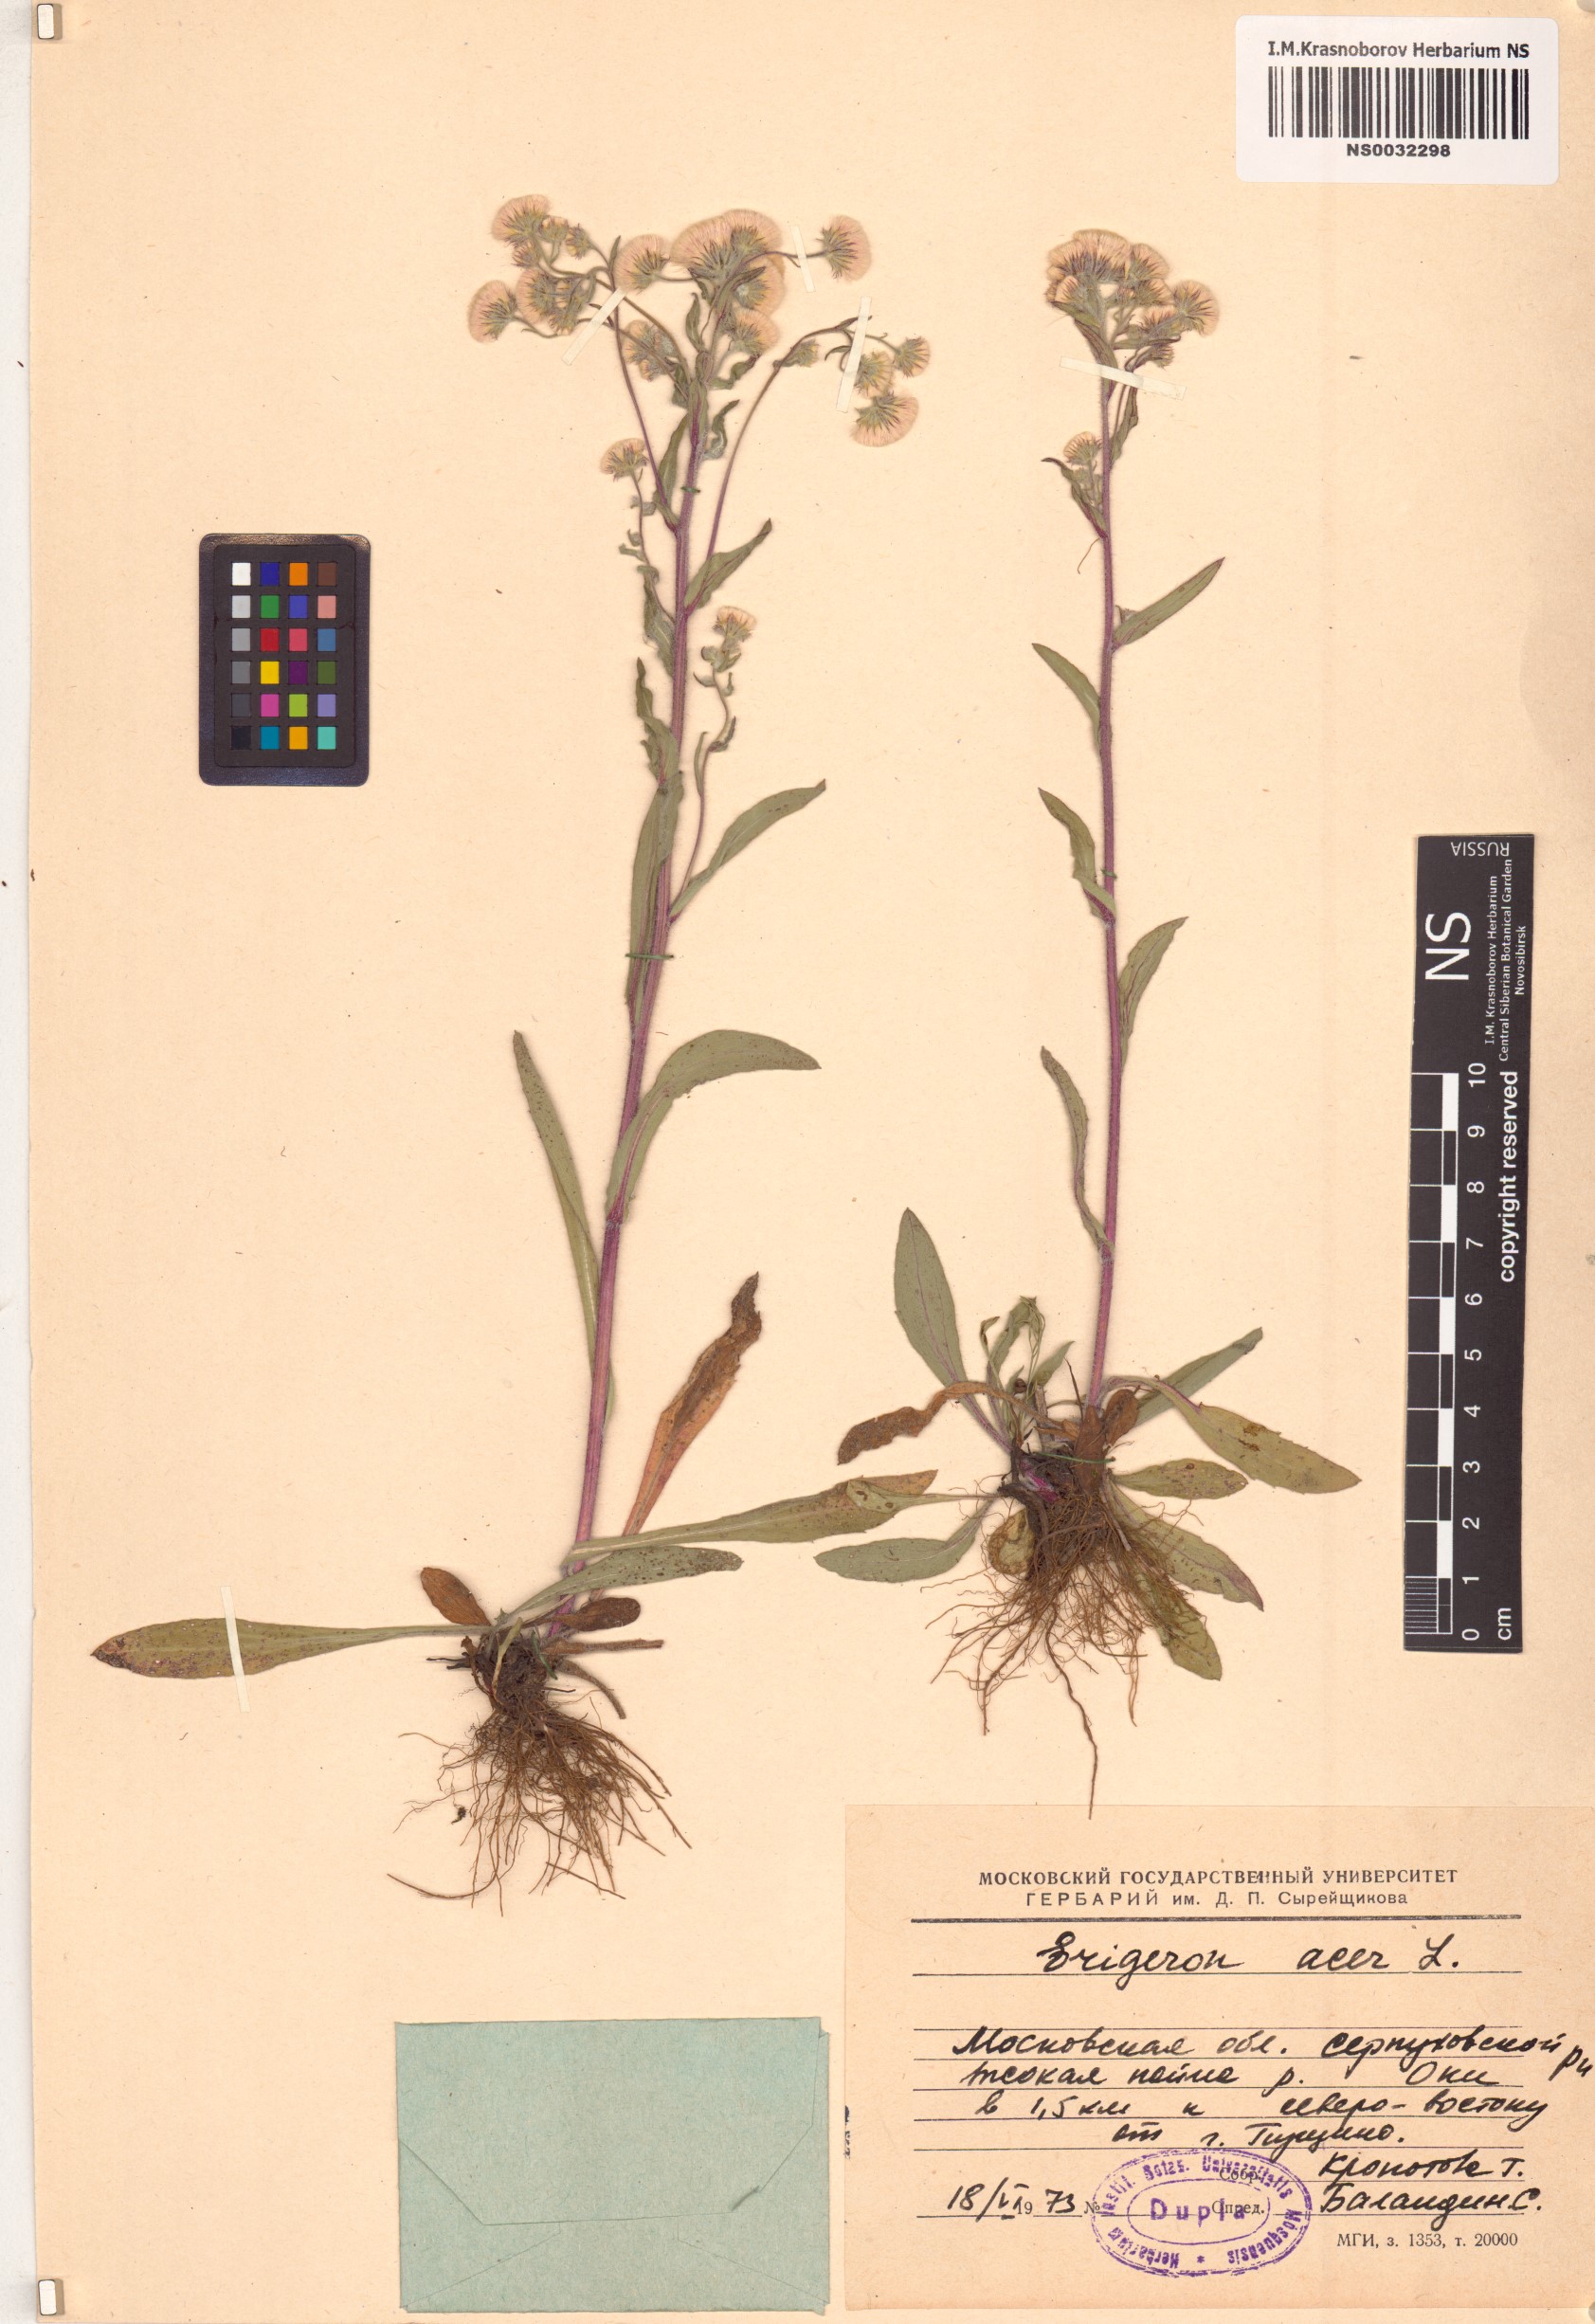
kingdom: Plantae
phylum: Tracheophyta
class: Magnoliopsida
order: Asterales
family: Asteraceae
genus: Erigeron
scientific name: Erigeron acris
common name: Blue fleabane
